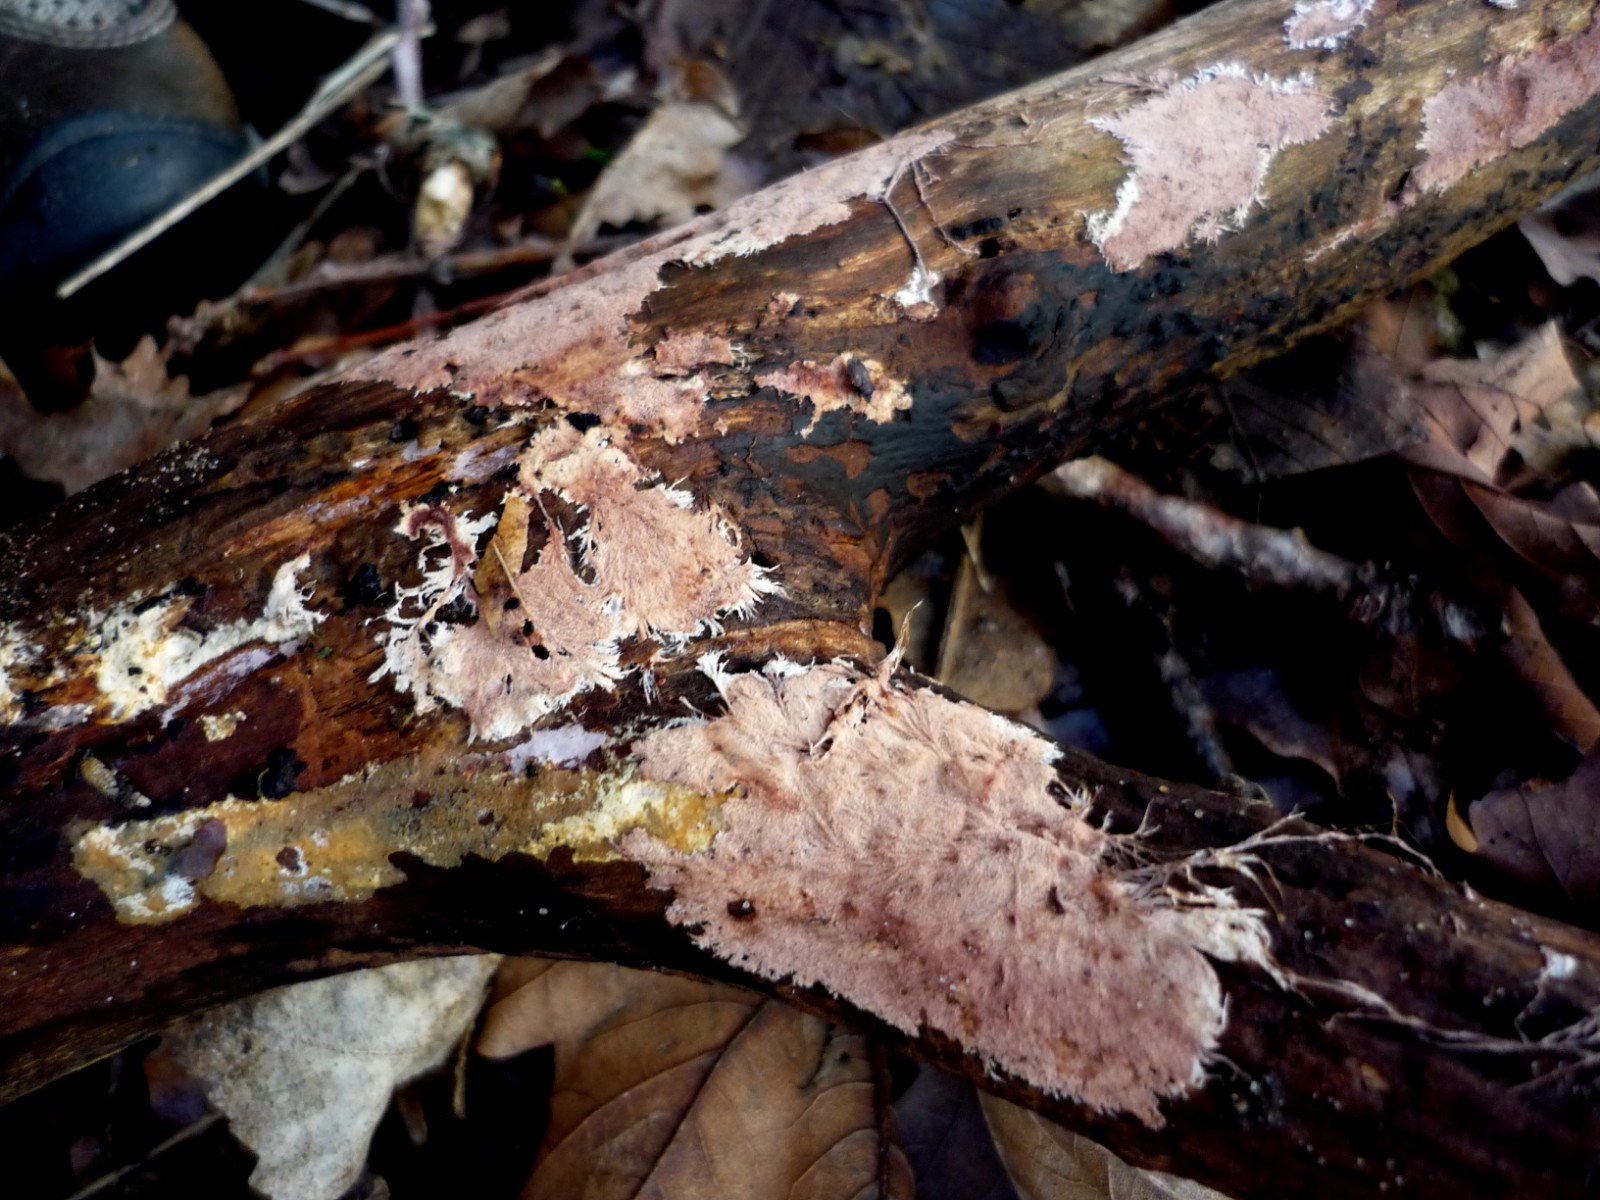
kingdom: Fungi
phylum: Basidiomycota
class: Agaricomycetes
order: Polyporales
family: Steccherinaceae
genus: Steccherinum
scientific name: Steccherinum fimbriatum
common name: trådet skønpig
